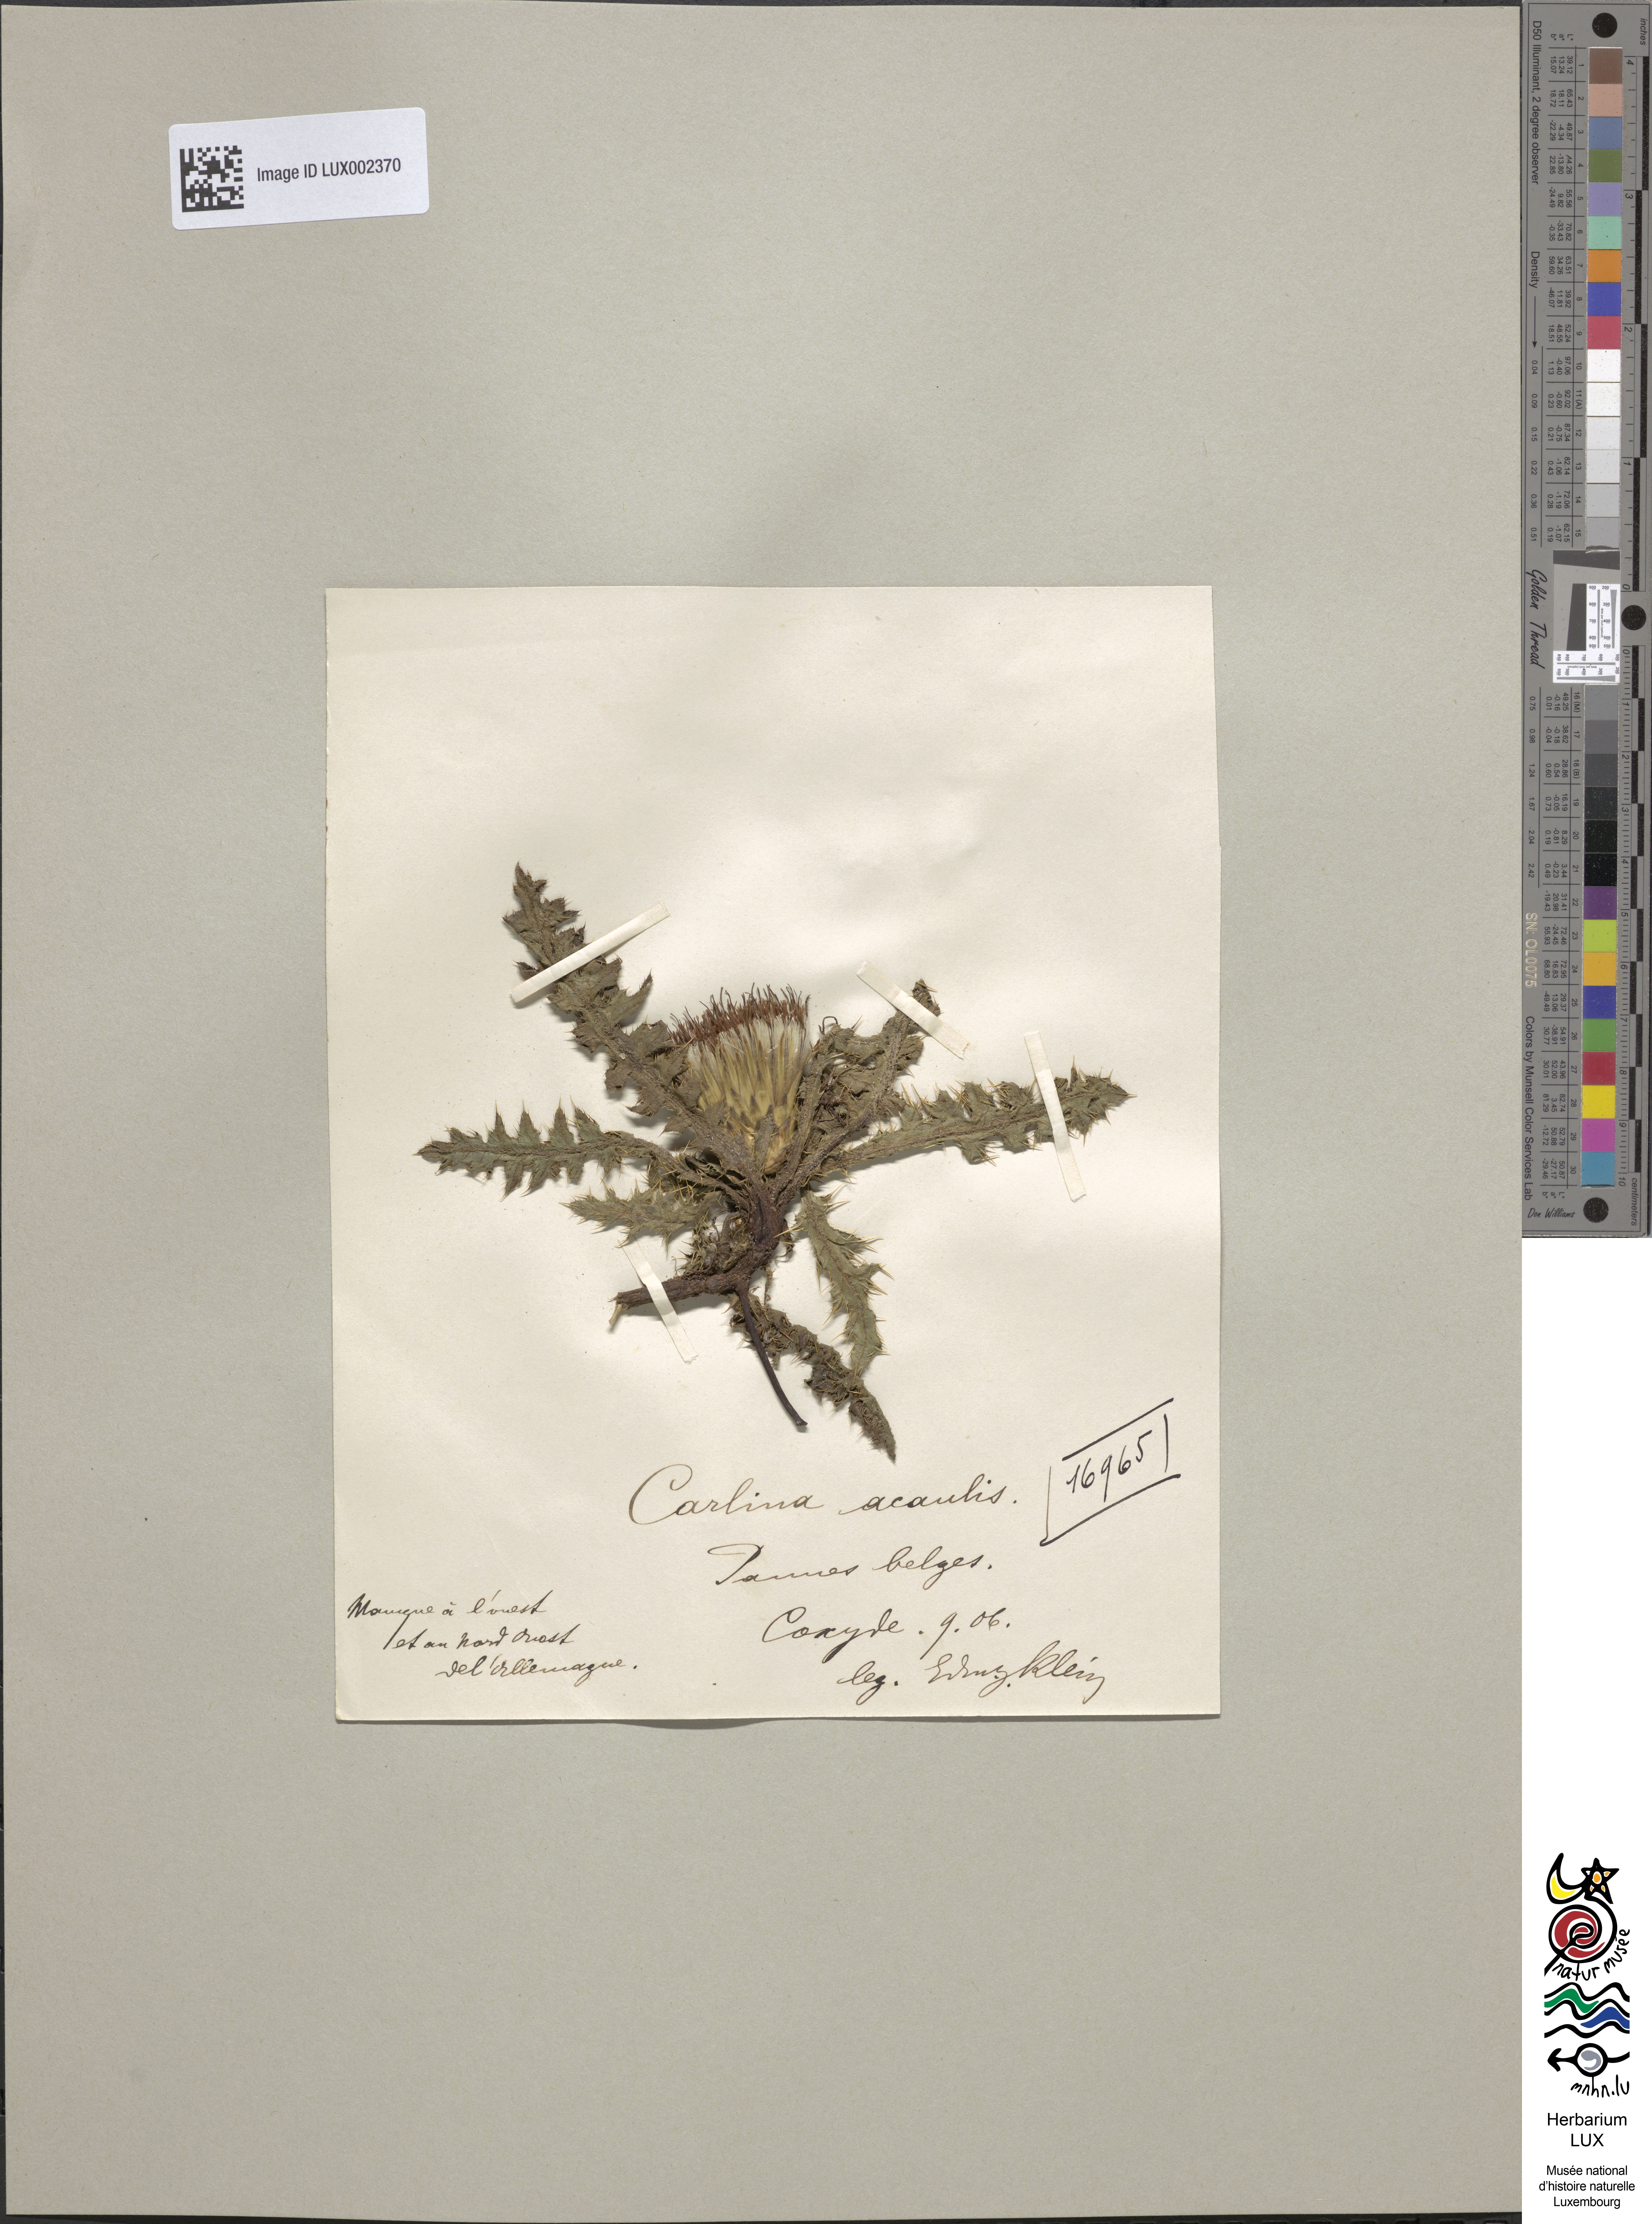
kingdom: Plantae
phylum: Tracheophyta
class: Magnoliopsida
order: Asterales
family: Asteraceae
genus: Carlina
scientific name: Carlina acaulis
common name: Stemless carline thistle
